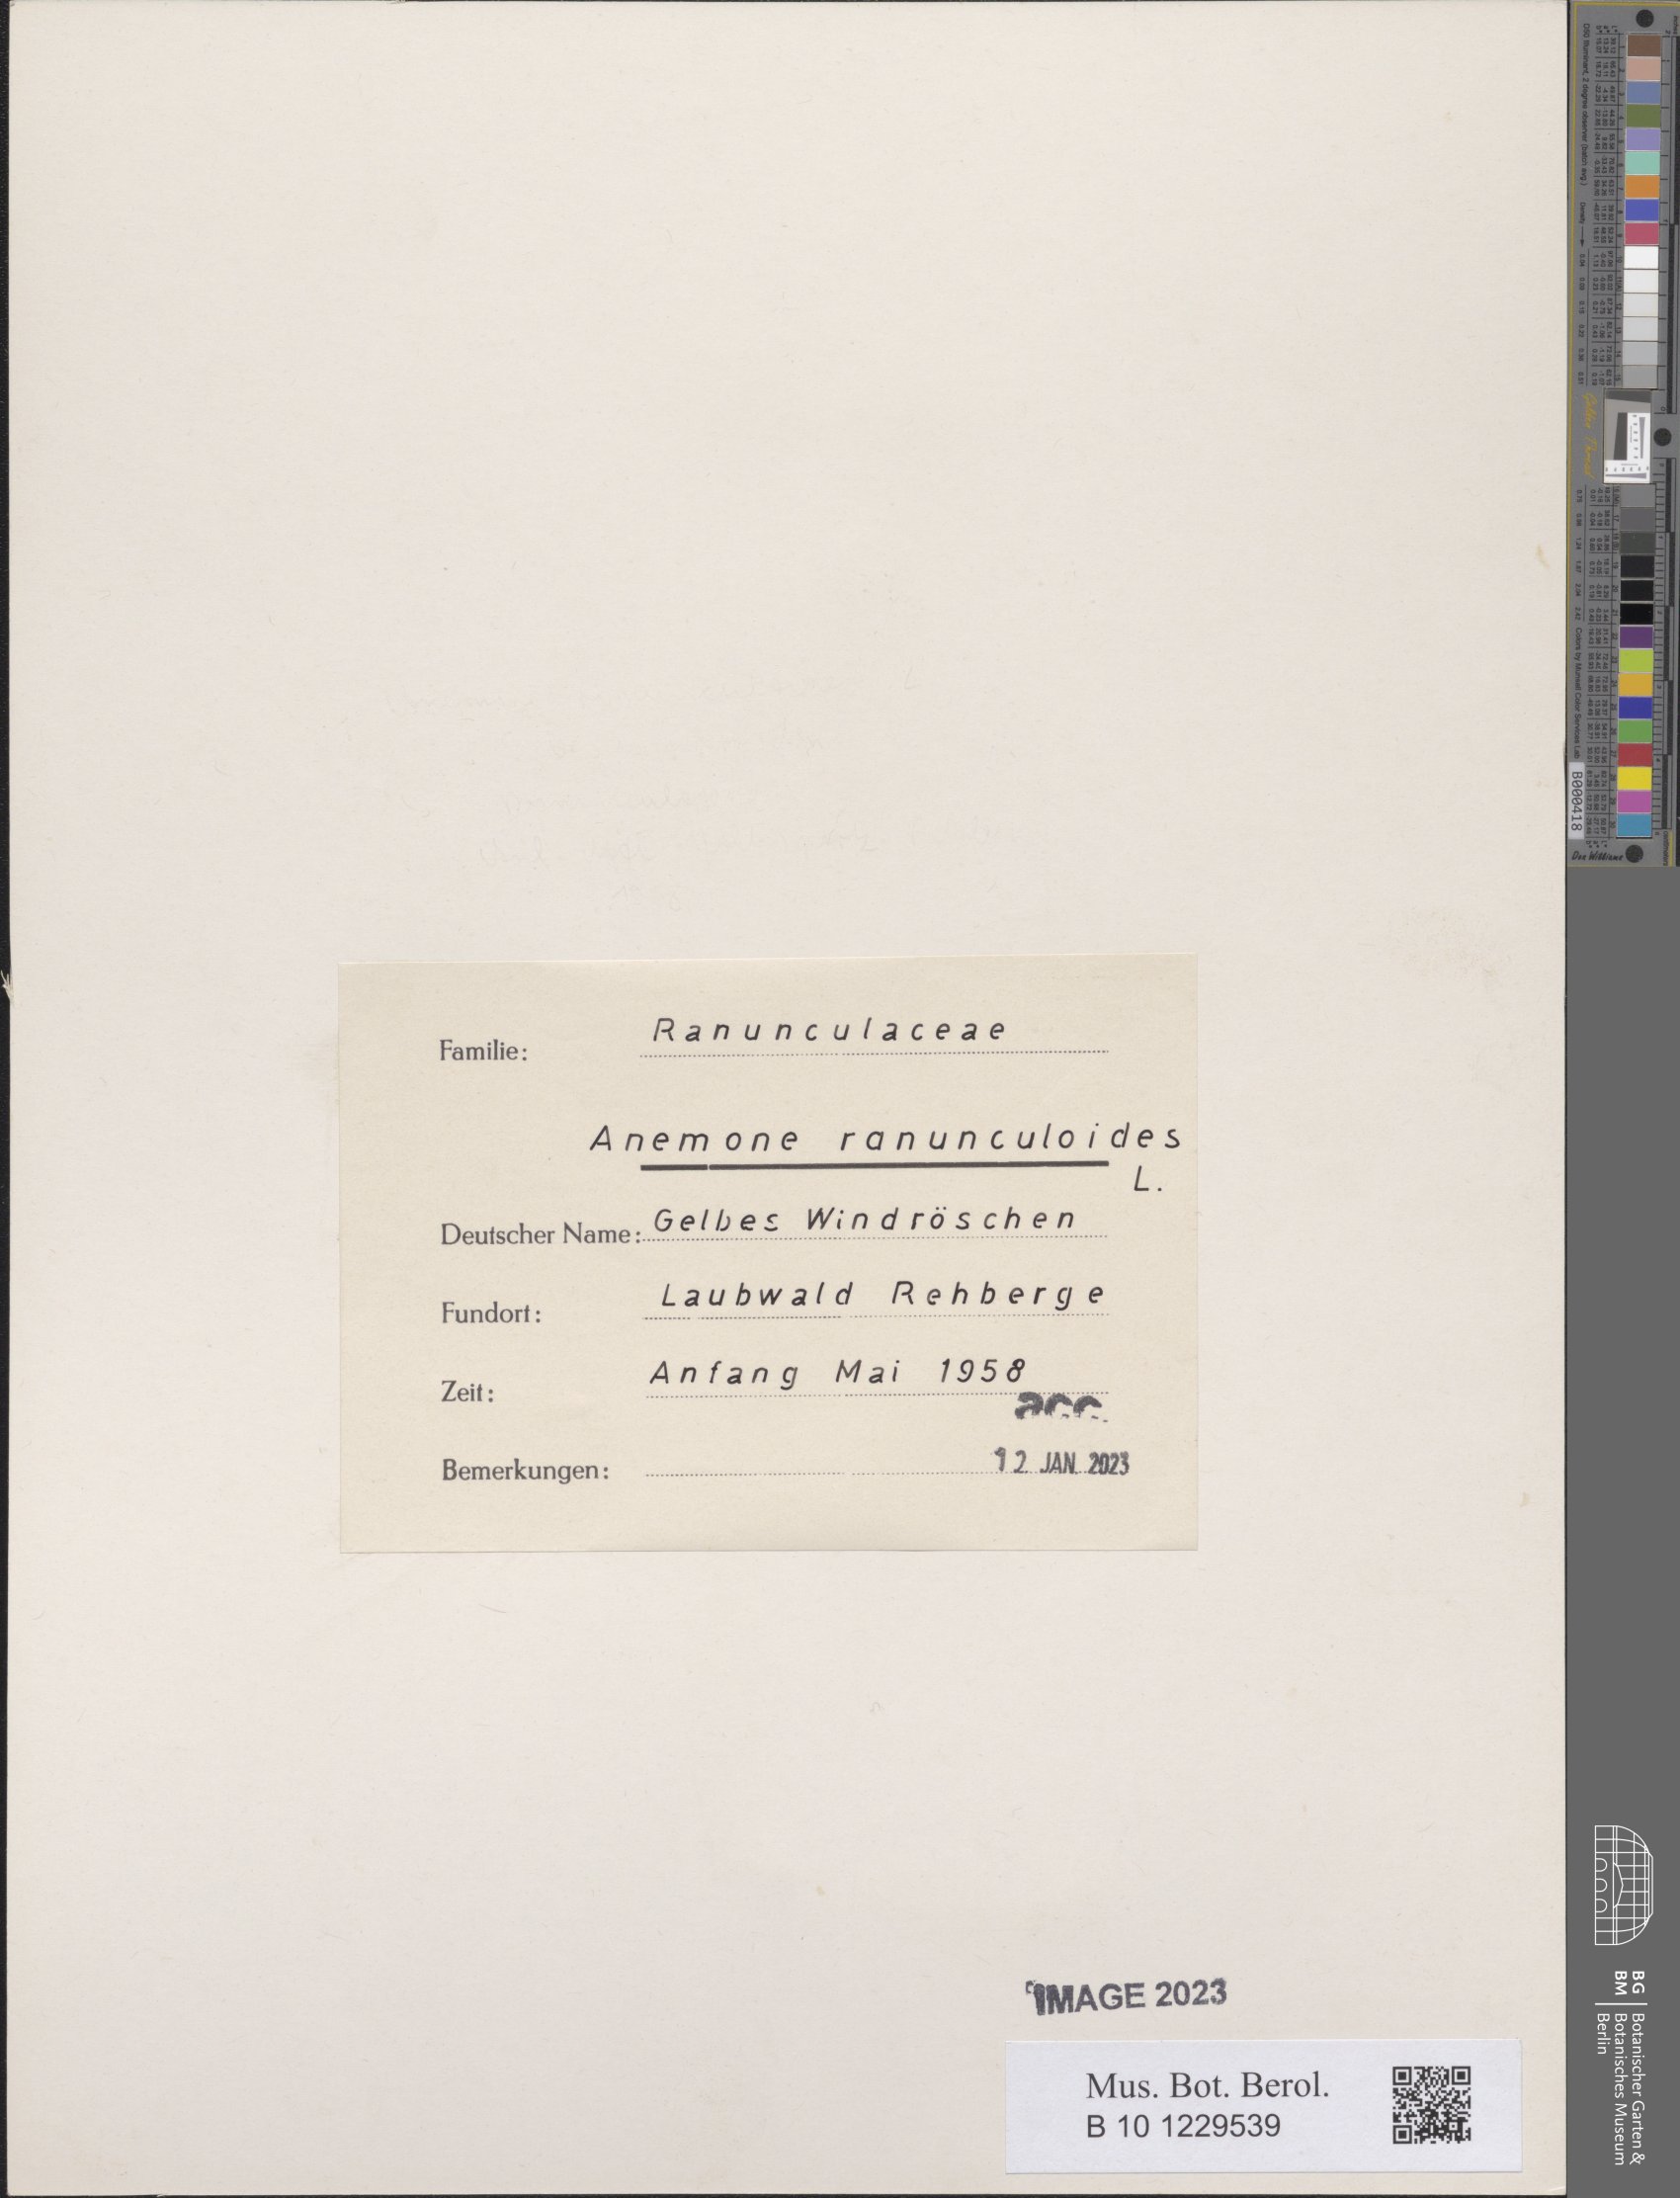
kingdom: Plantae
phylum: Tracheophyta
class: Magnoliopsida
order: Ranunculales
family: Ranunculaceae
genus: Anemone
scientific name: Anemone ranunculoides
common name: Yellow anemone
